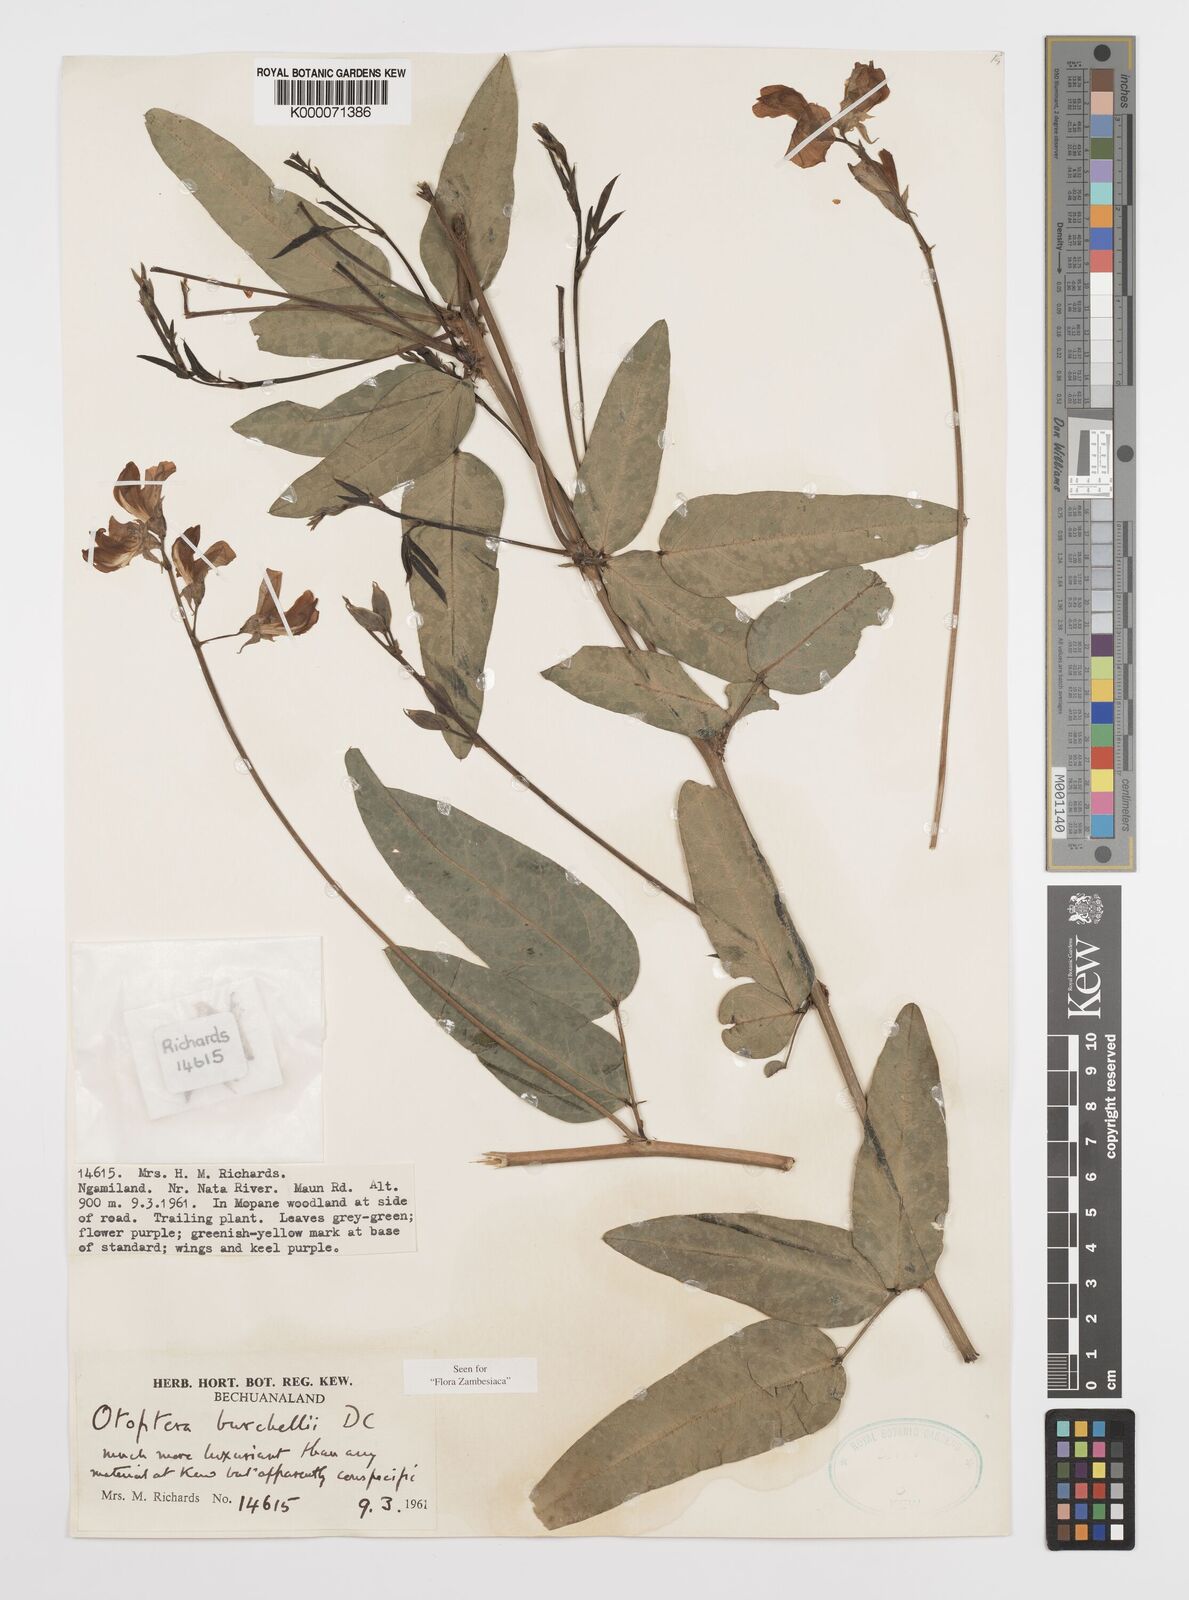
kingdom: Plantae
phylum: Tracheophyta
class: Magnoliopsida
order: Fabales
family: Fabaceae
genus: Otoptera
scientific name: Otoptera burchellii
